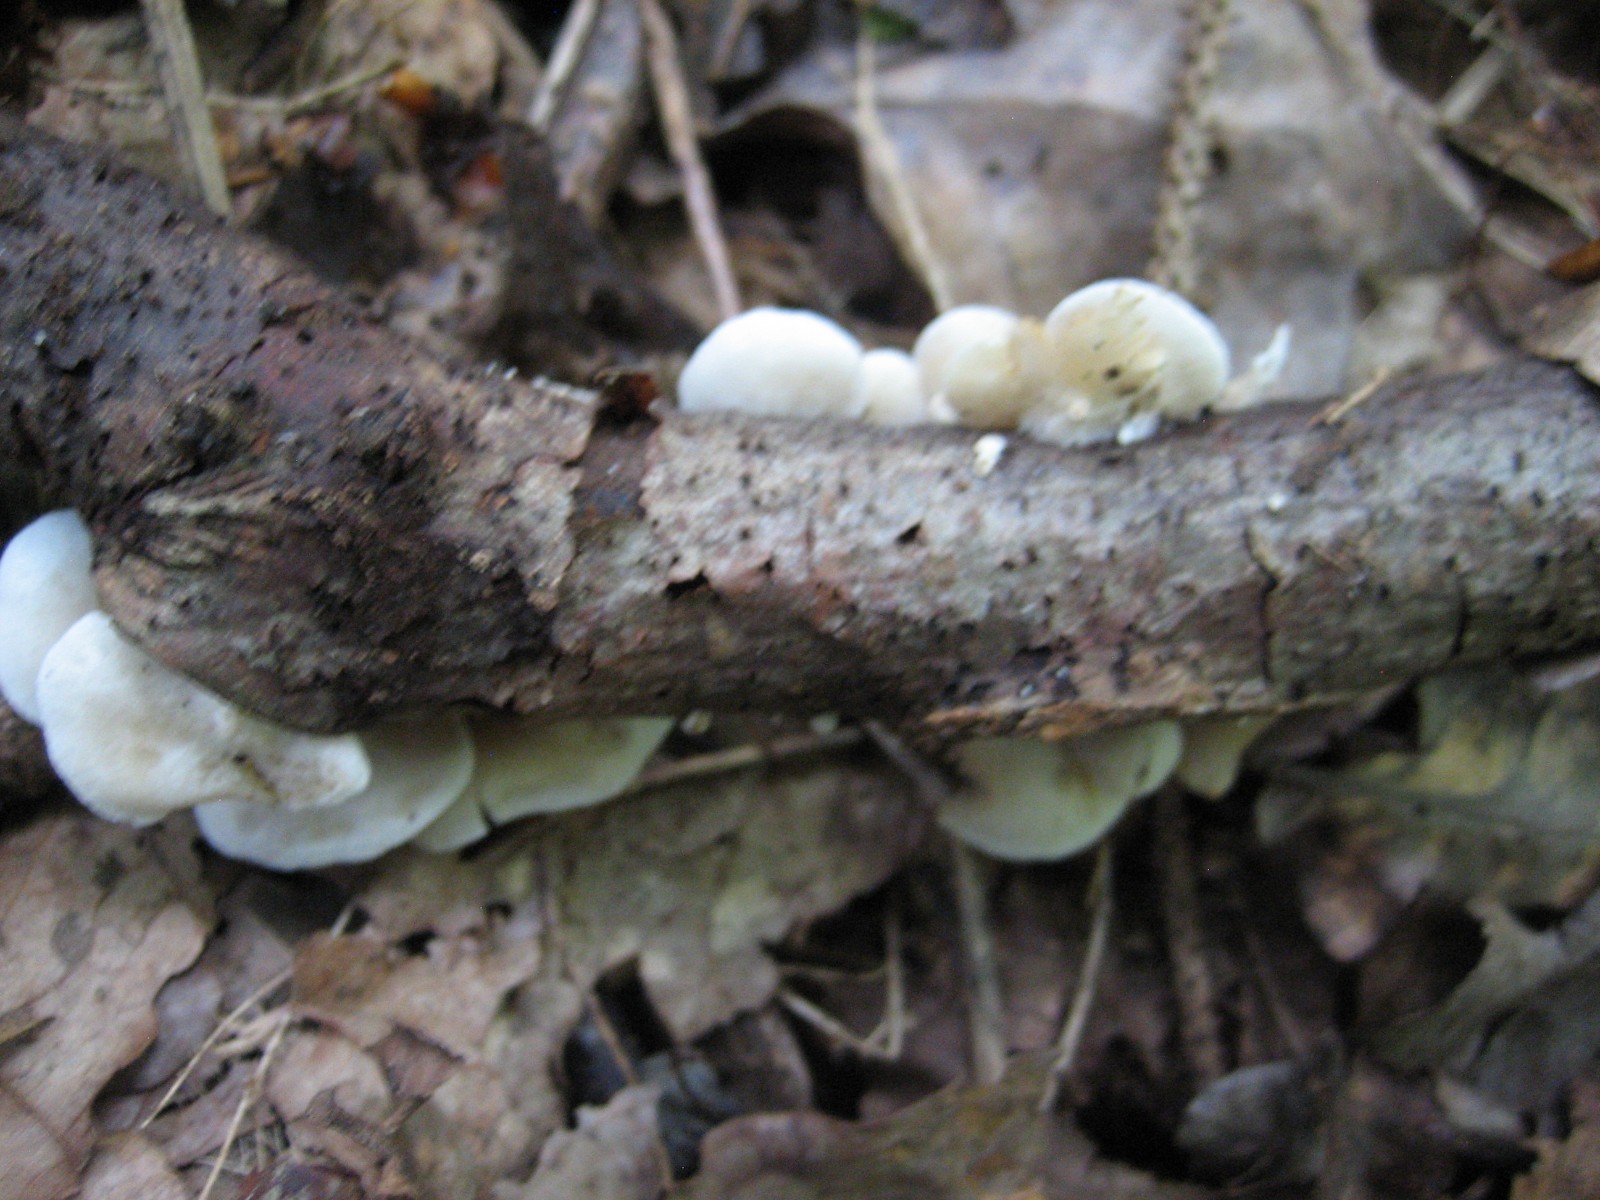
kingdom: Fungi
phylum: Basidiomycota
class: Agaricomycetes
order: Agaricales
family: Crepidotaceae
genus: Crepidotus
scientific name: Crepidotus
